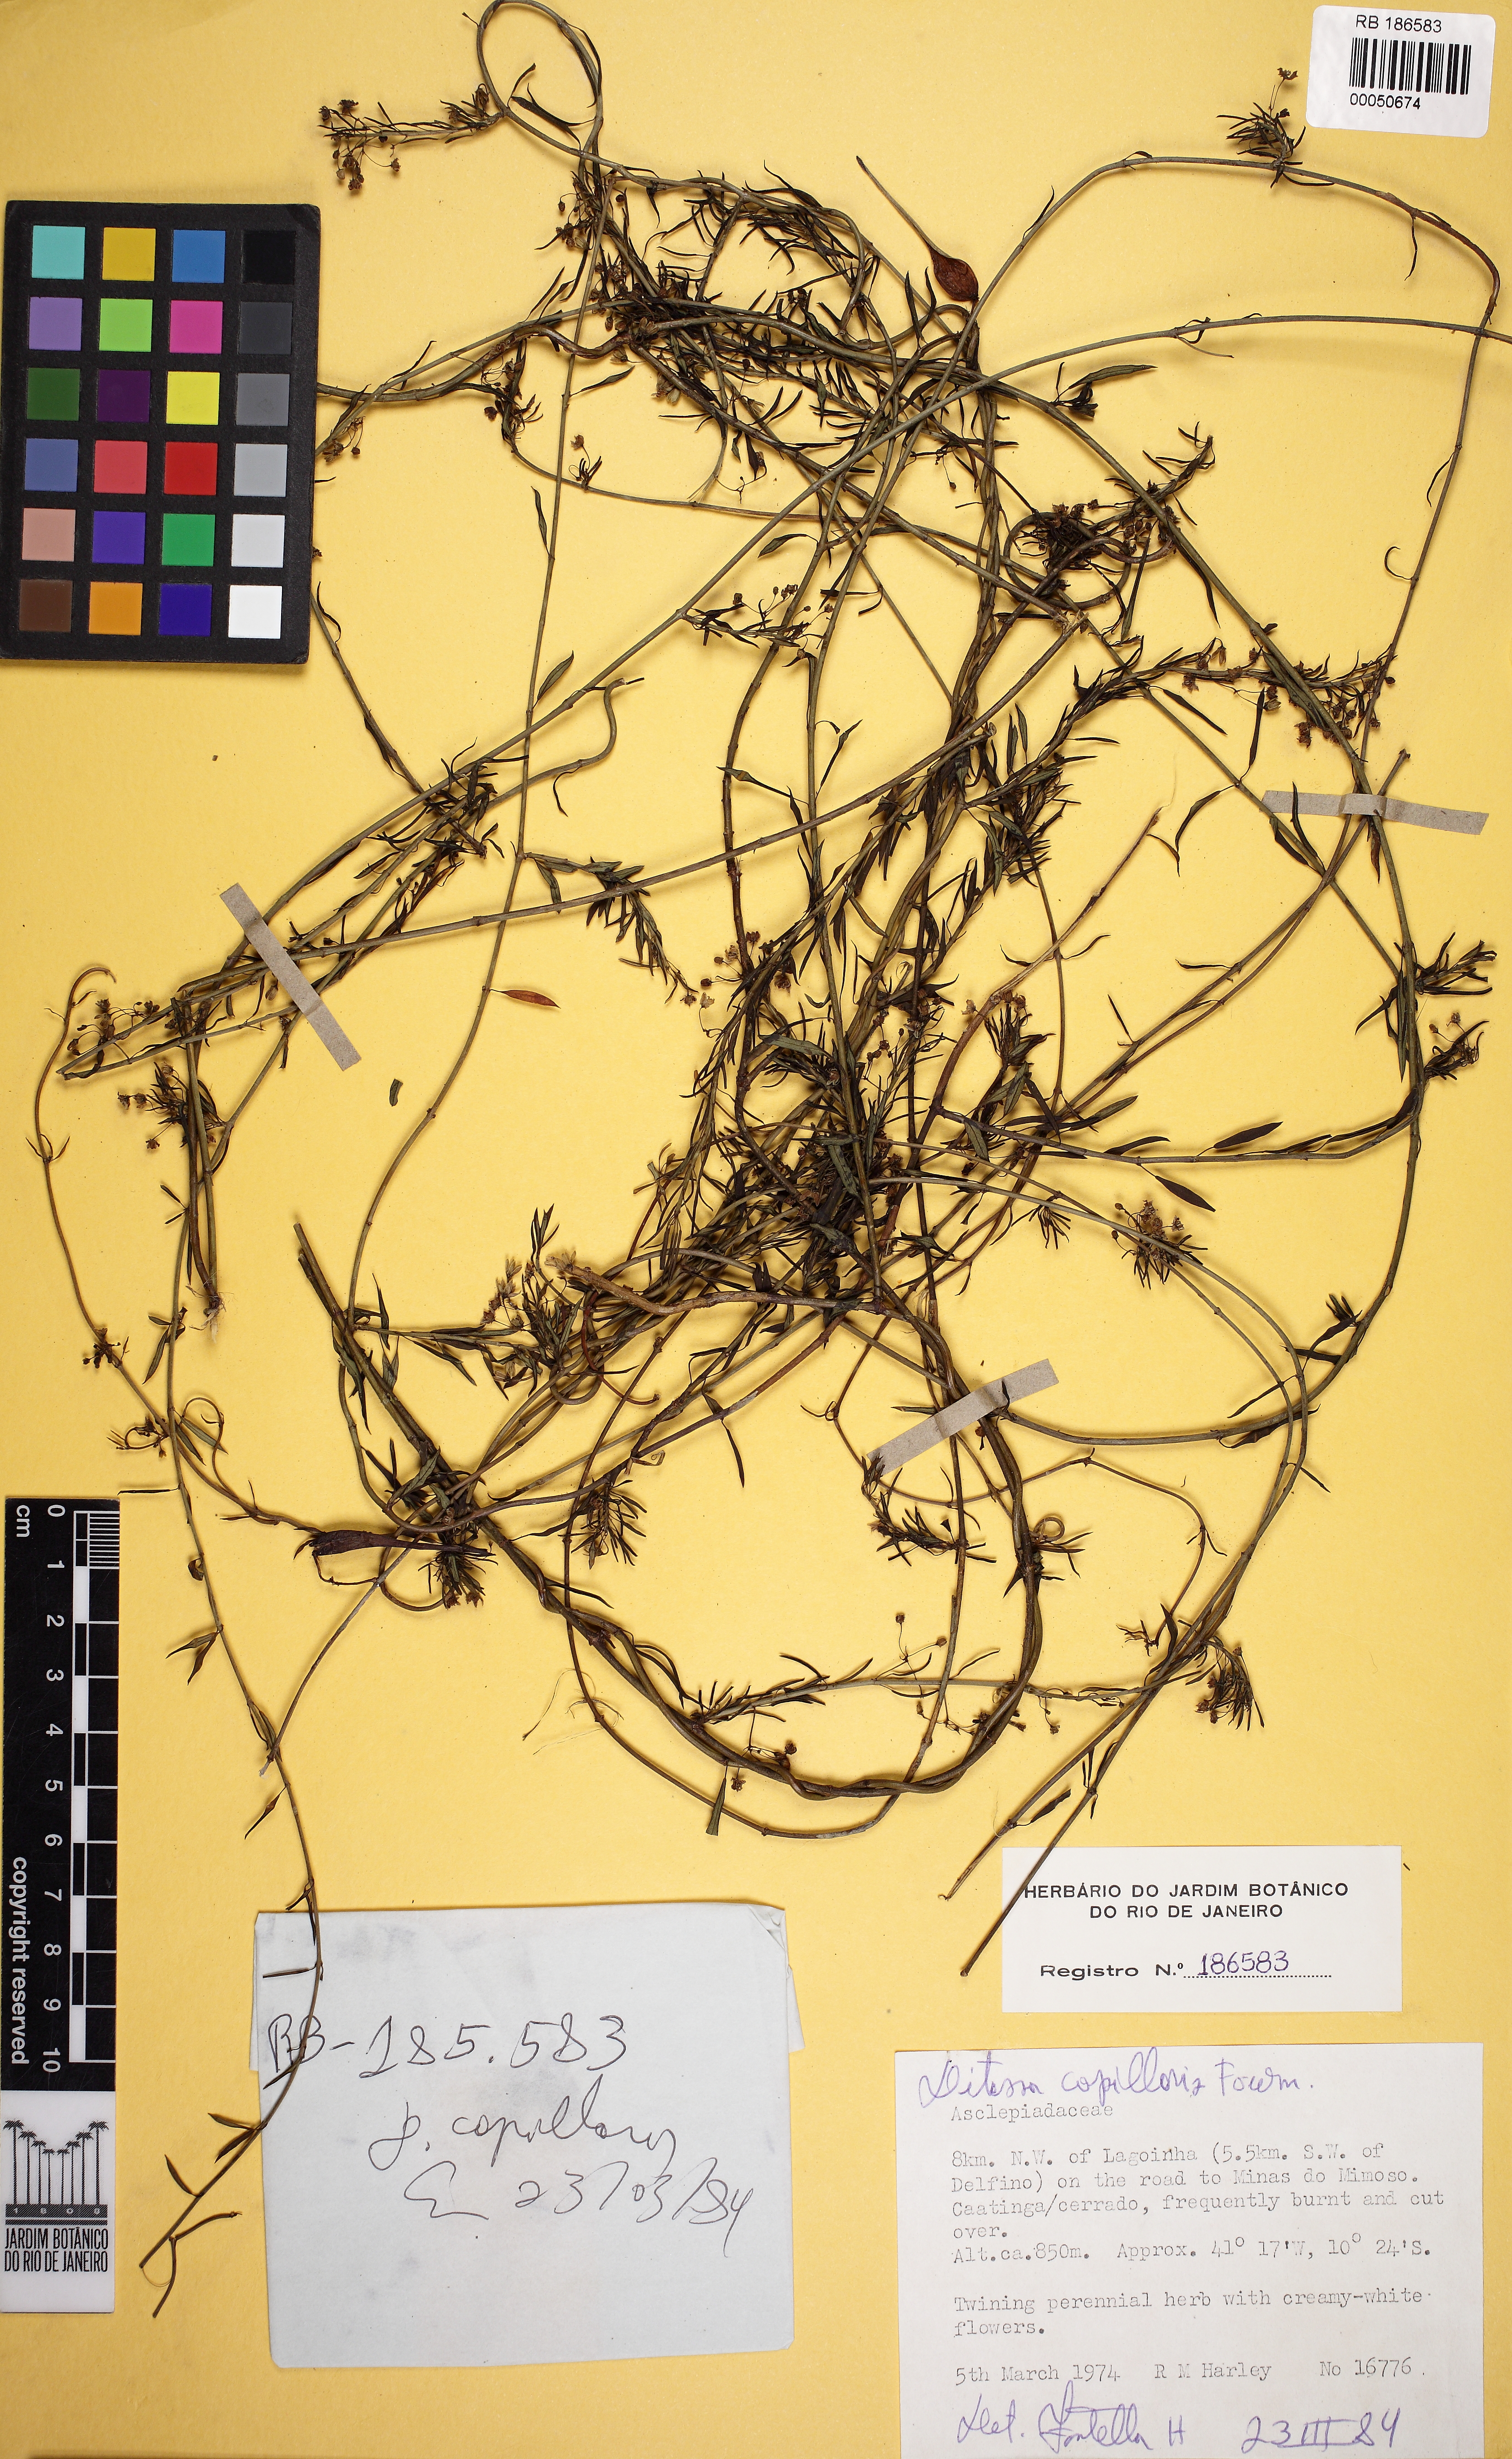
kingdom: Plantae
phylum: Tracheophyta
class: Magnoliopsida
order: Gentianales
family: Apocynaceae
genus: Ditassa
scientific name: Ditassa capillaris
